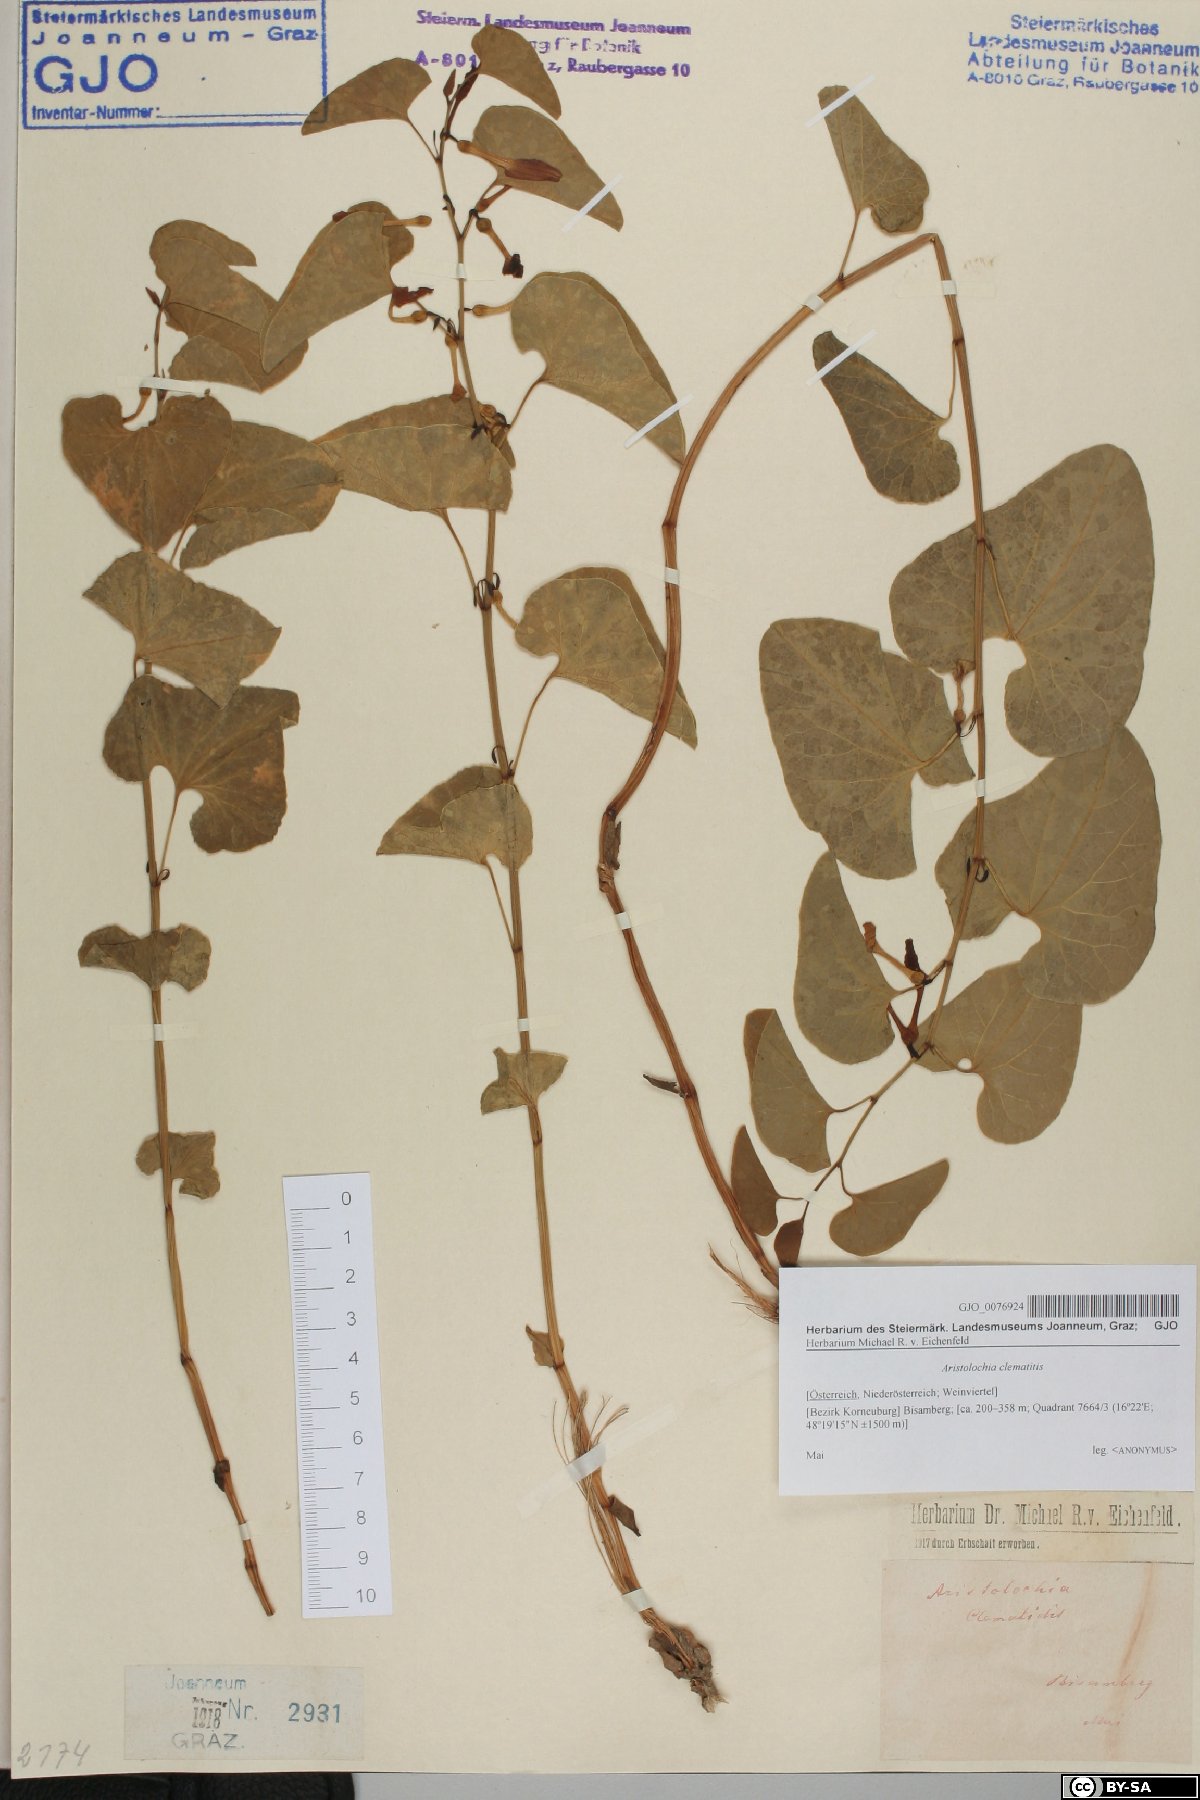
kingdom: Plantae
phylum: Tracheophyta
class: Magnoliopsida
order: Piperales
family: Aristolochiaceae
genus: Aristolochia
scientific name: Aristolochia clematitis
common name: Birthwort
